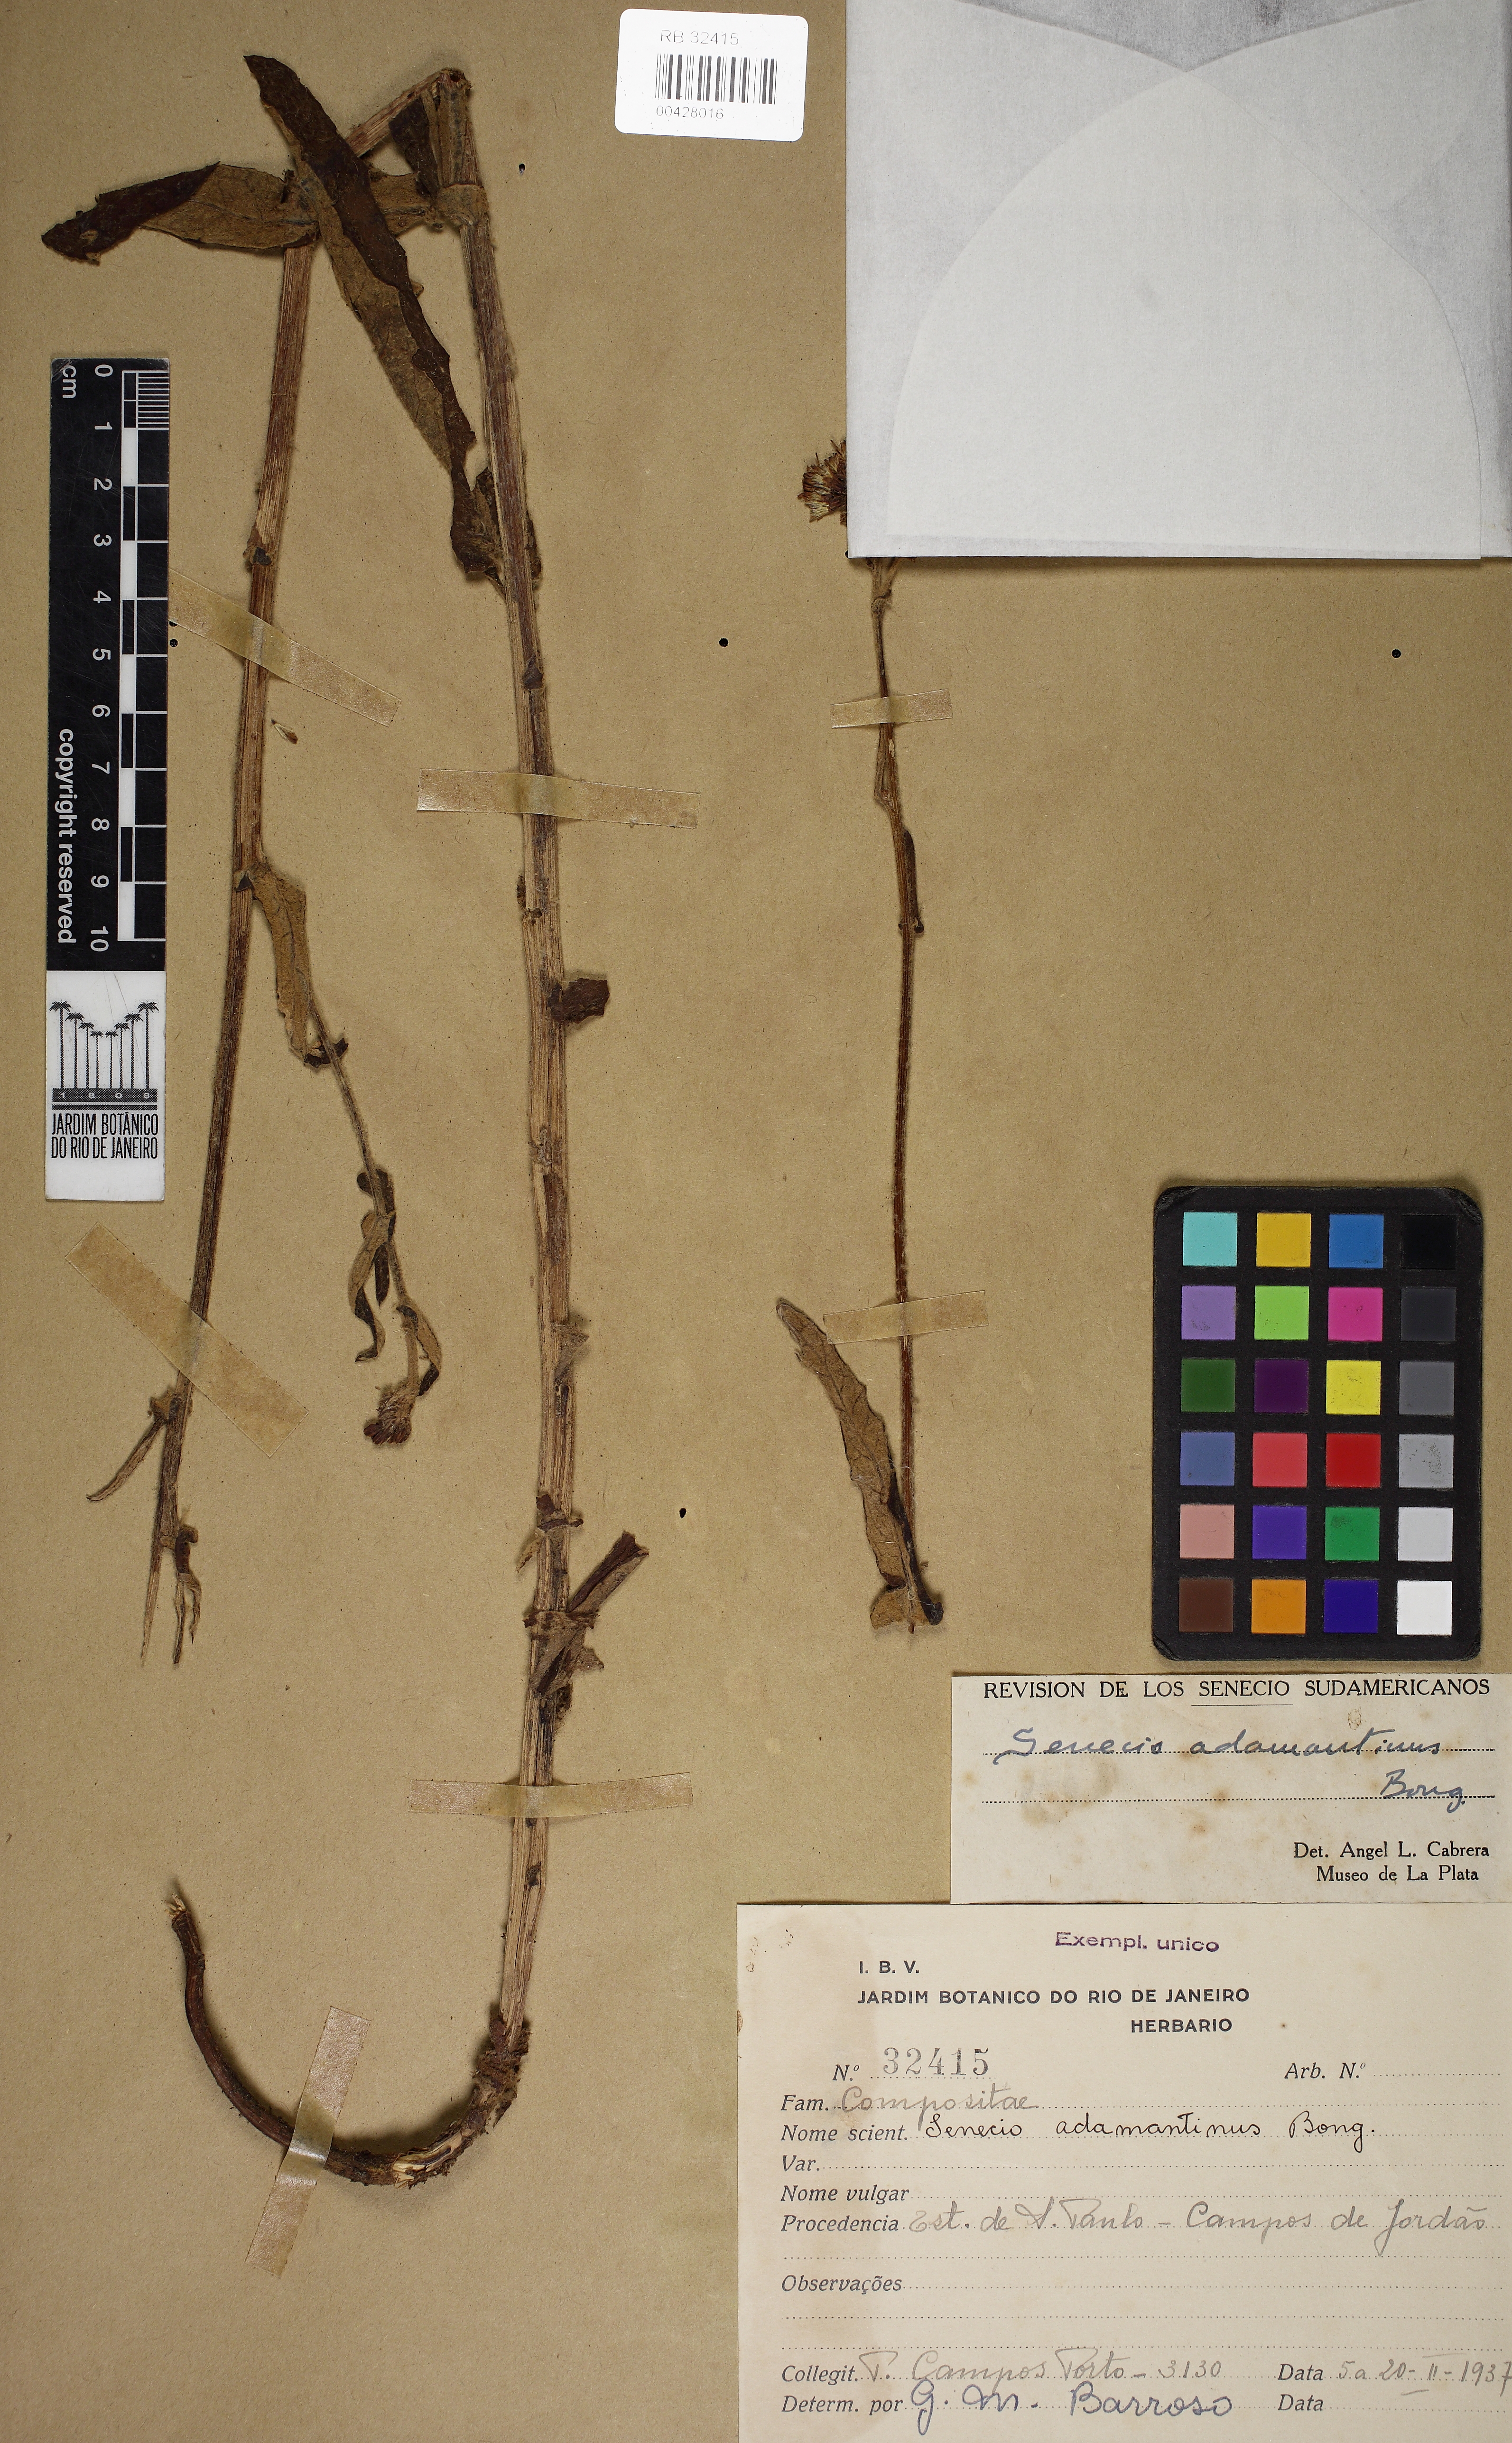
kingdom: Plantae
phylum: Tracheophyta
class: Magnoliopsida
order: Asterales
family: Asteraceae
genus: Senecio
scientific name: Senecio adamantinus
